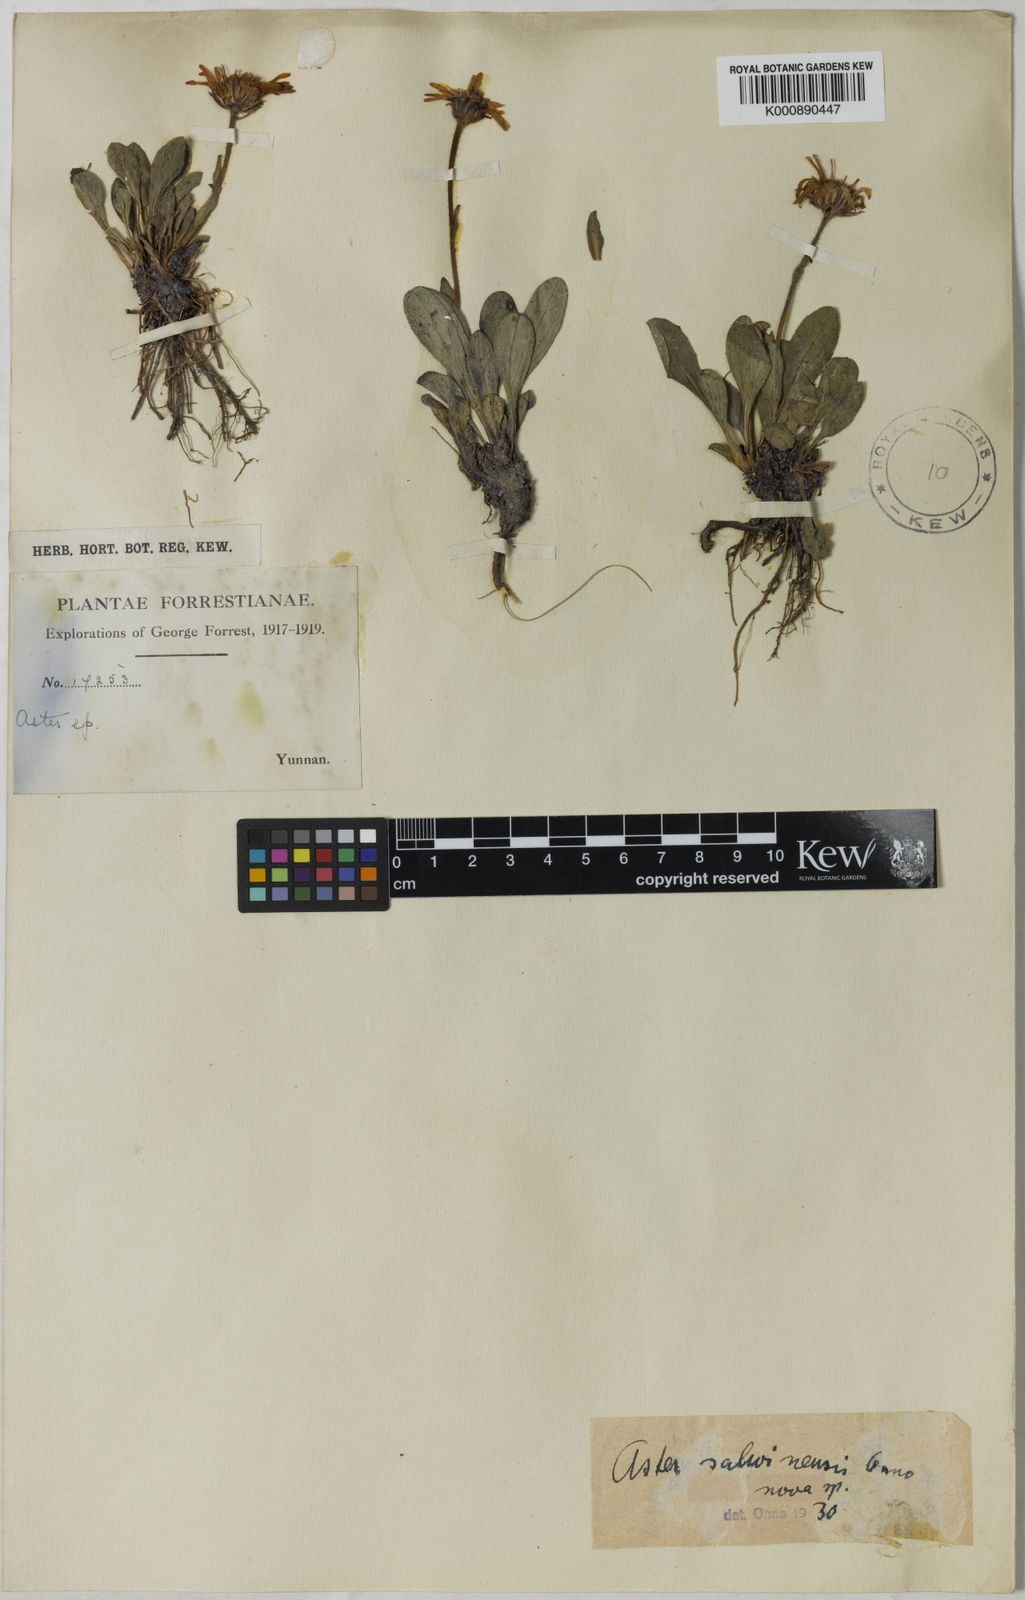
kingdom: Plantae
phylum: Tracheophyta
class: Magnoliopsida
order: Asterales
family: Asteraceae
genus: Tibetiodes
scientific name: Tibetiodes salwinensis
